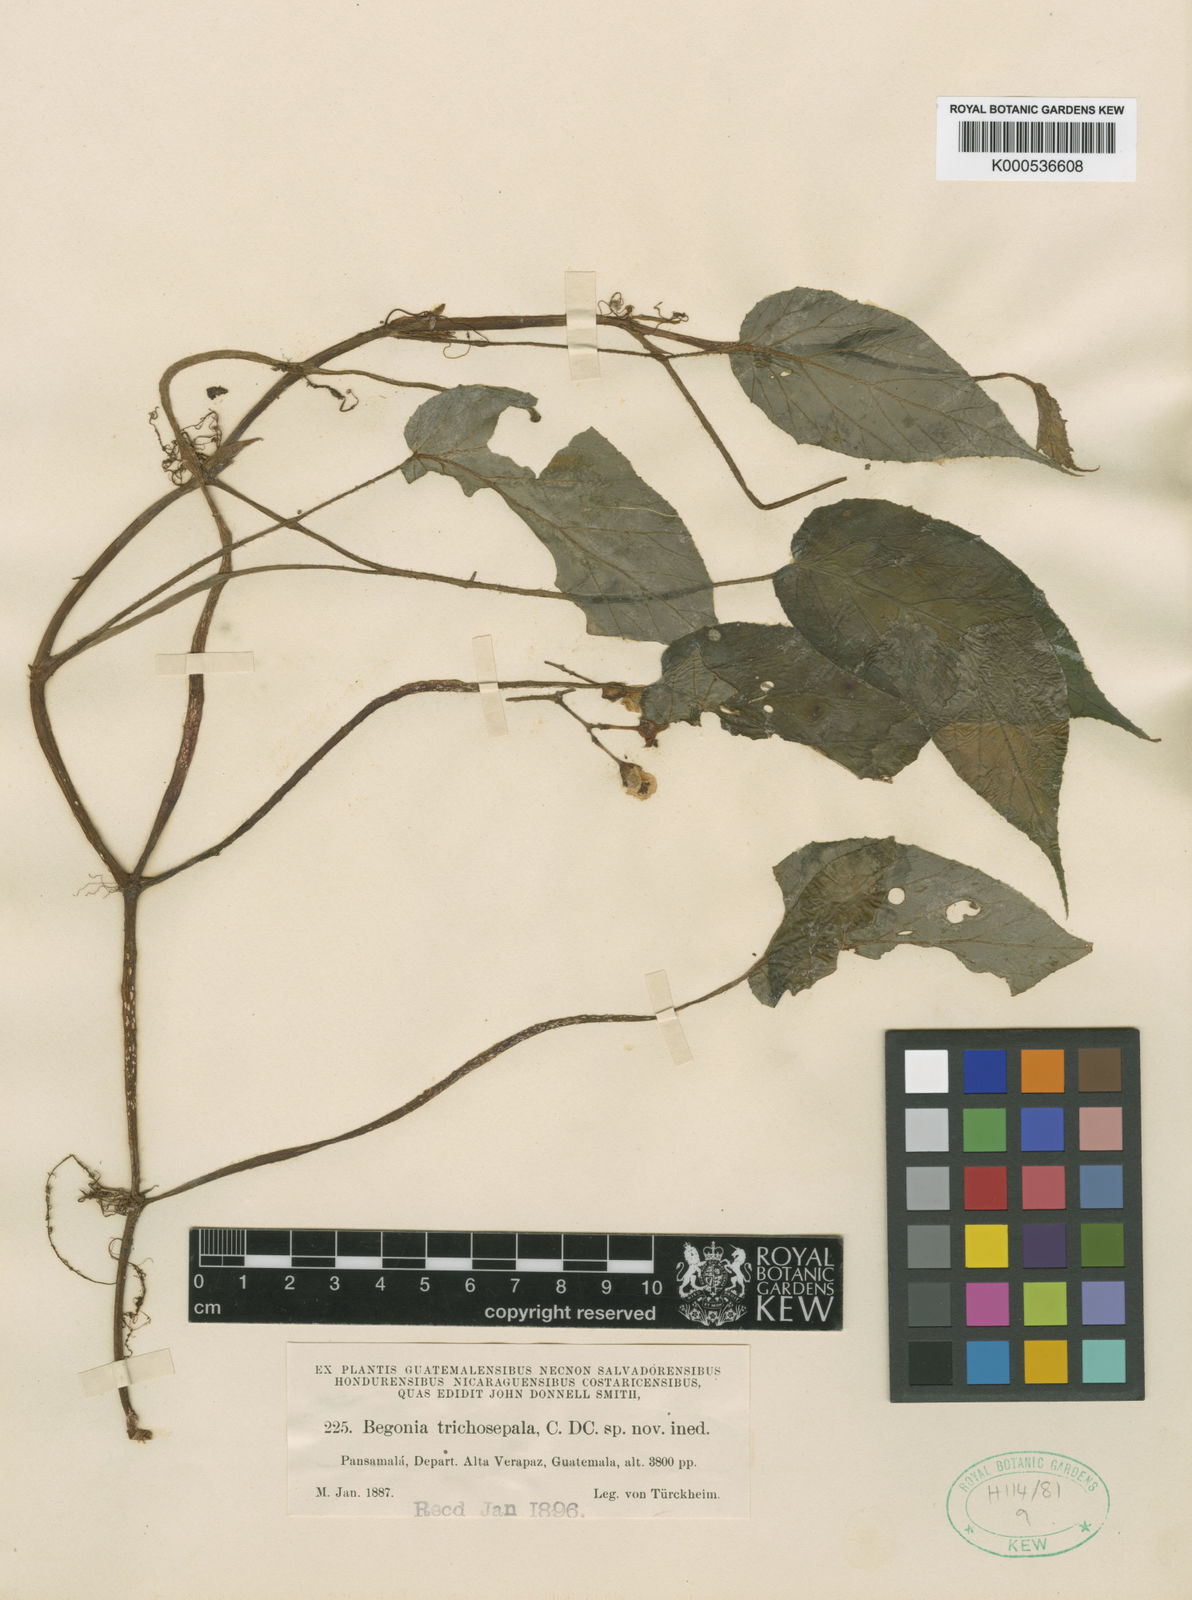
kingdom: Plantae
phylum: Tracheophyta
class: Magnoliopsida
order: Cucurbitales
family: Begoniaceae
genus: Begonia
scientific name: Begonia trichosepala
